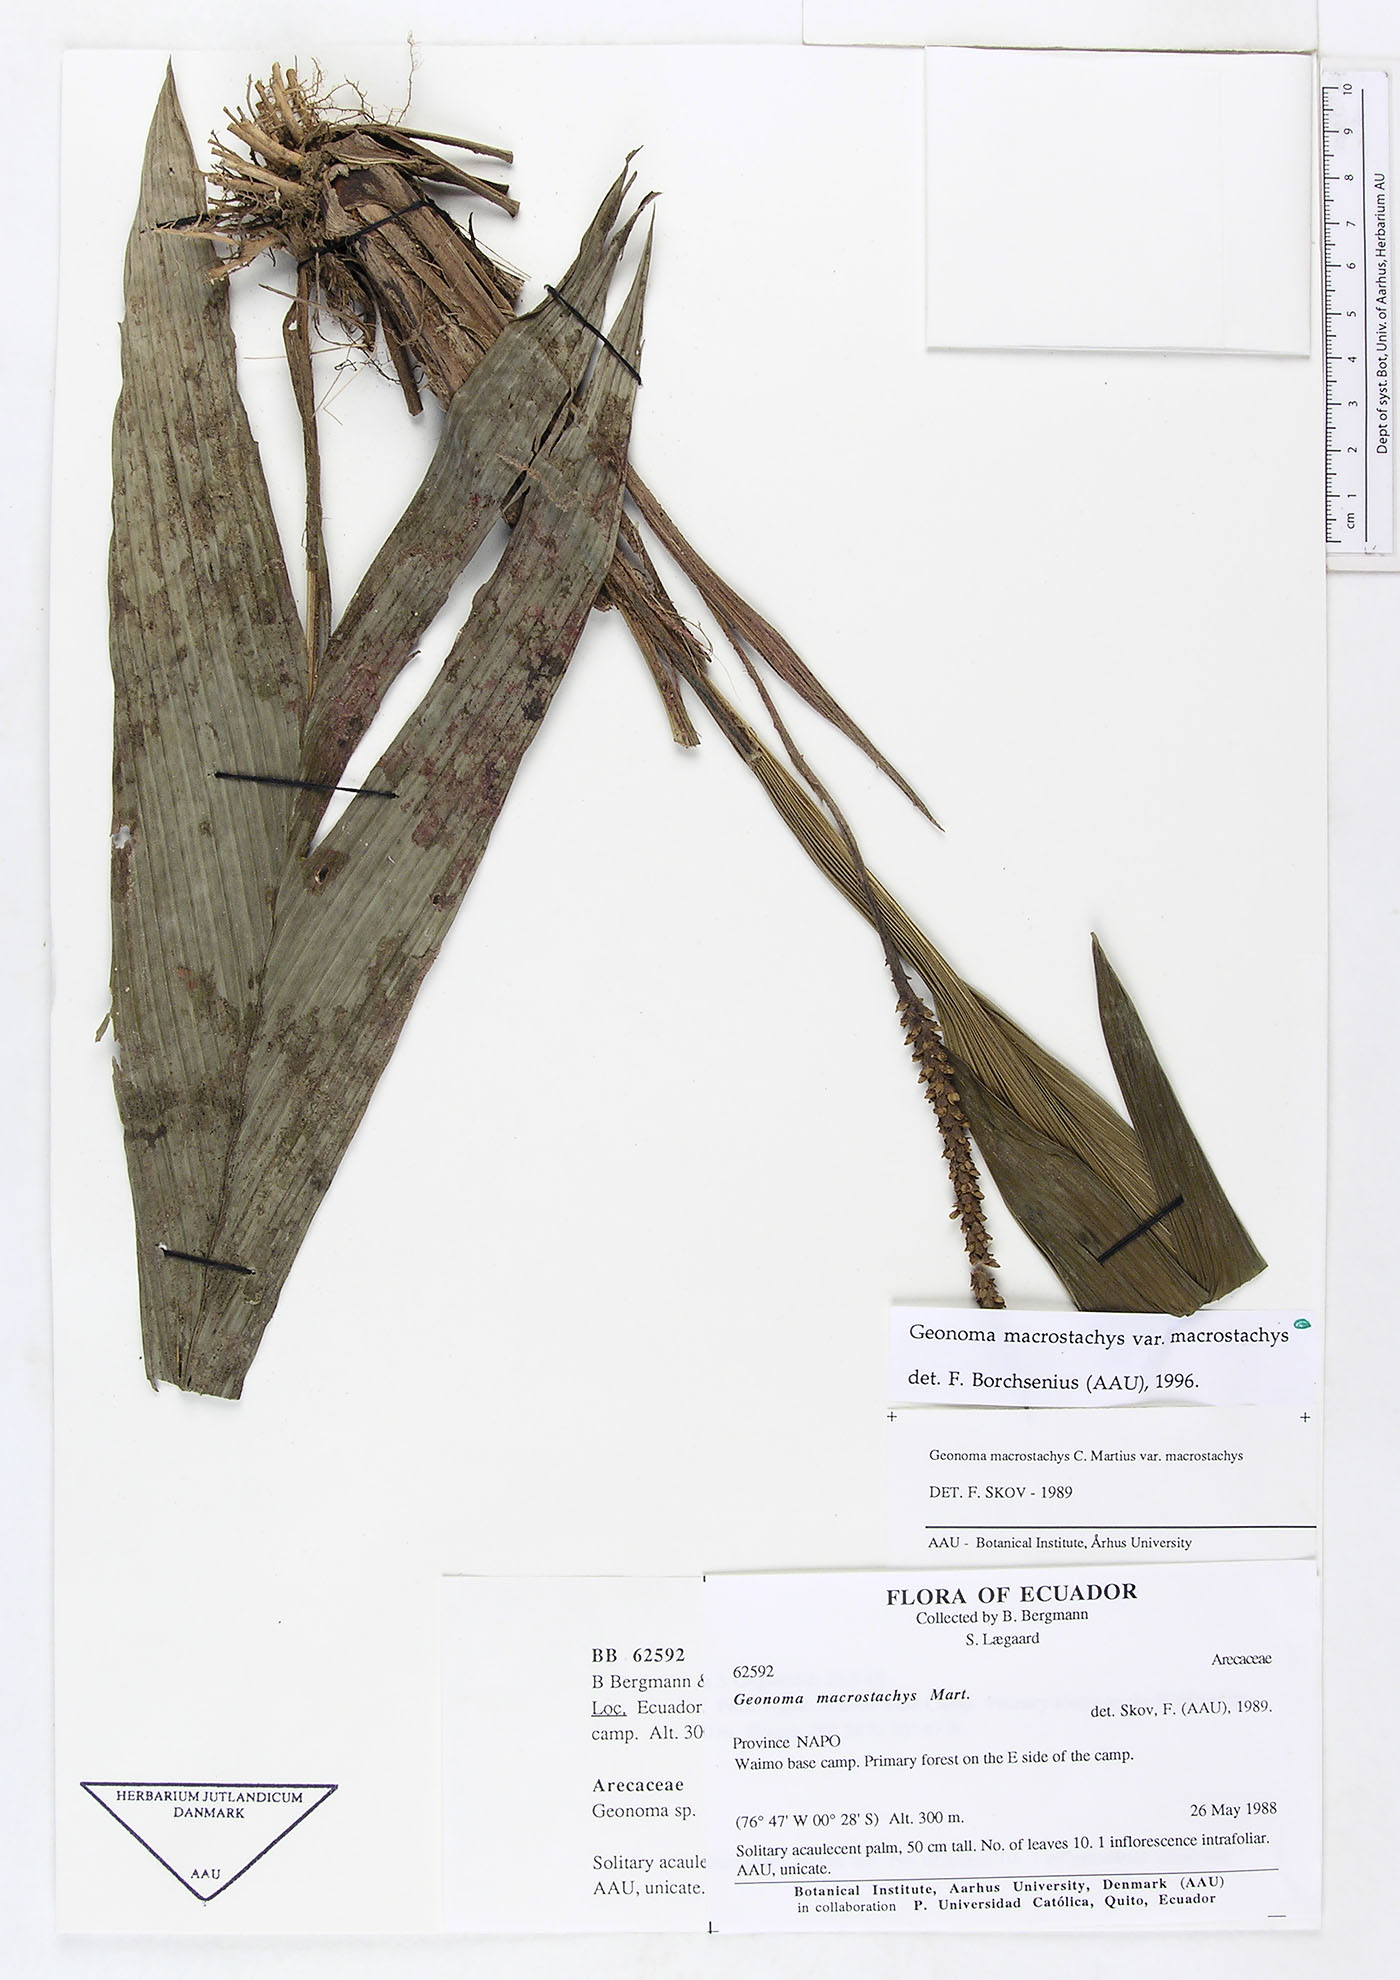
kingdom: Plantae
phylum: Tracheophyta
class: Liliopsida
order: Arecales
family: Arecaceae
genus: Geonoma
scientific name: Geonoma macrostachys
